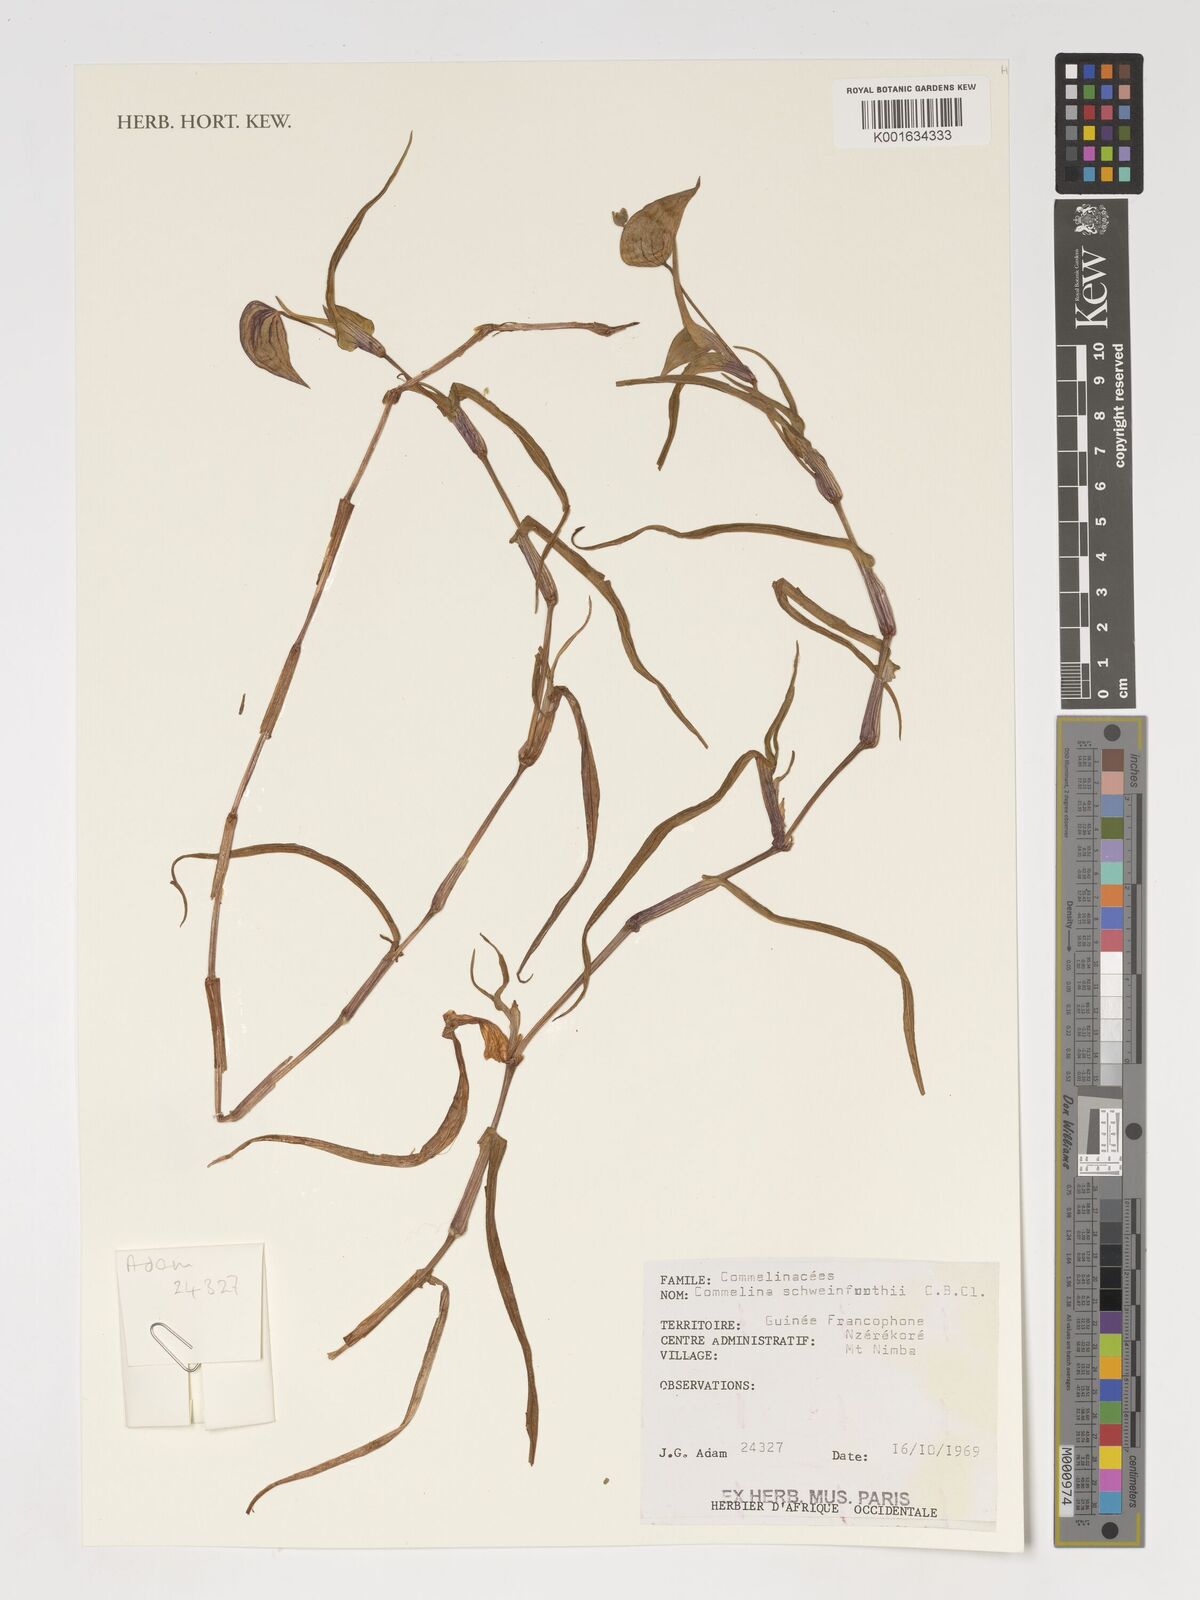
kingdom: Plantae
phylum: Tracheophyta
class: Liliopsida
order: Commelinales
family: Commelinaceae
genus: Commelina
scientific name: Commelina schweinfurthii
